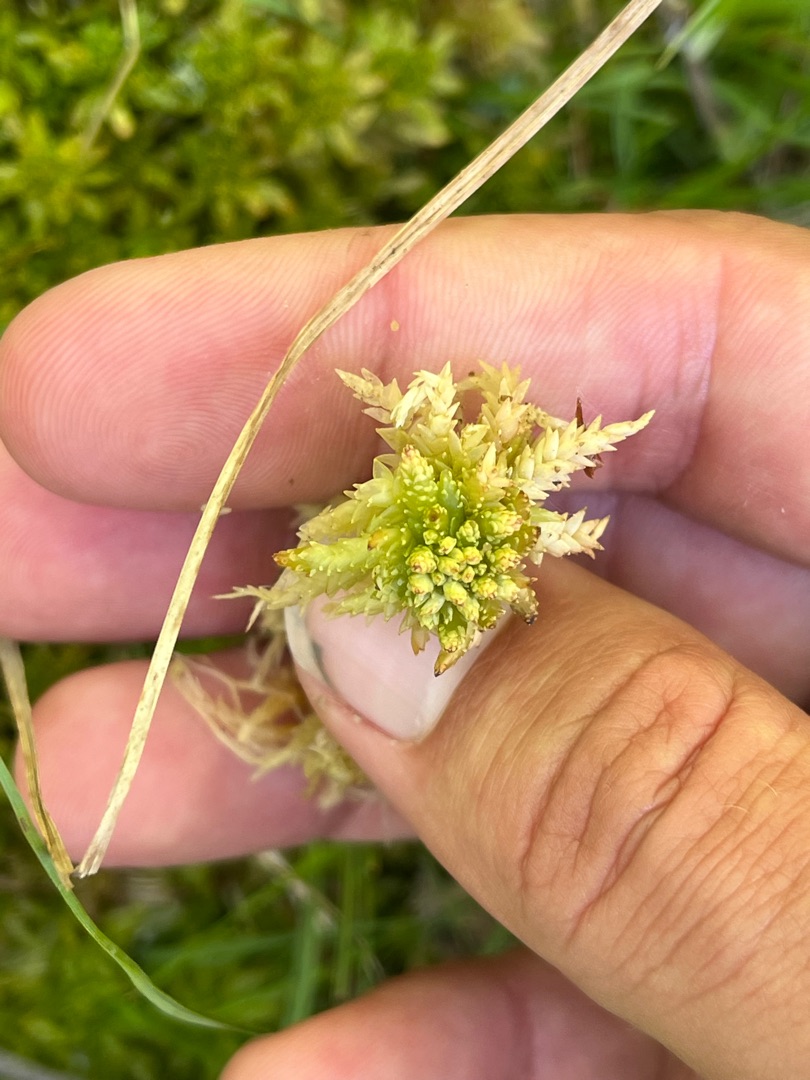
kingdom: Plantae
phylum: Bryophyta
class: Sphagnopsida
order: Sphagnales
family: Sphagnaceae
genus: Sphagnum
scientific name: Sphagnum palustre
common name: Almindelig tørvemos
